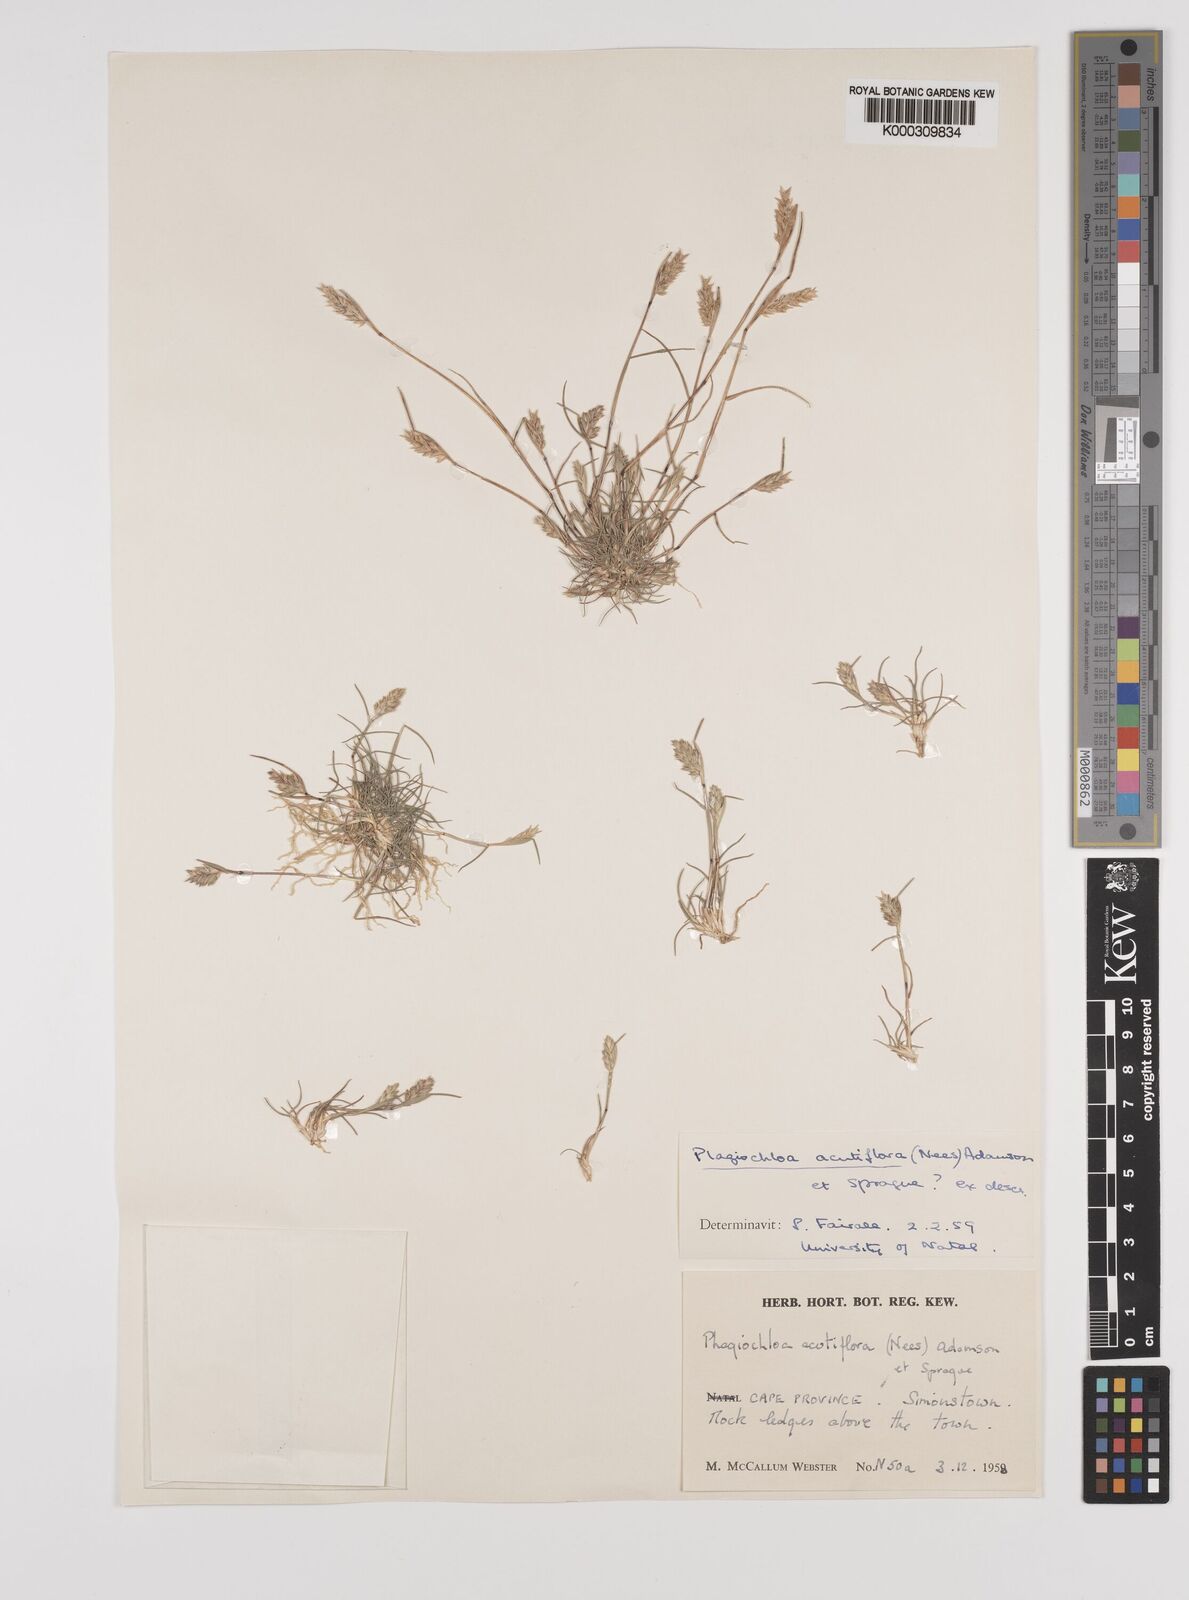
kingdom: Plantae
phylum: Tracheophyta
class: Liliopsida
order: Poales
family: Poaceae
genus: Tribolium
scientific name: Tribolium acutiflorum
